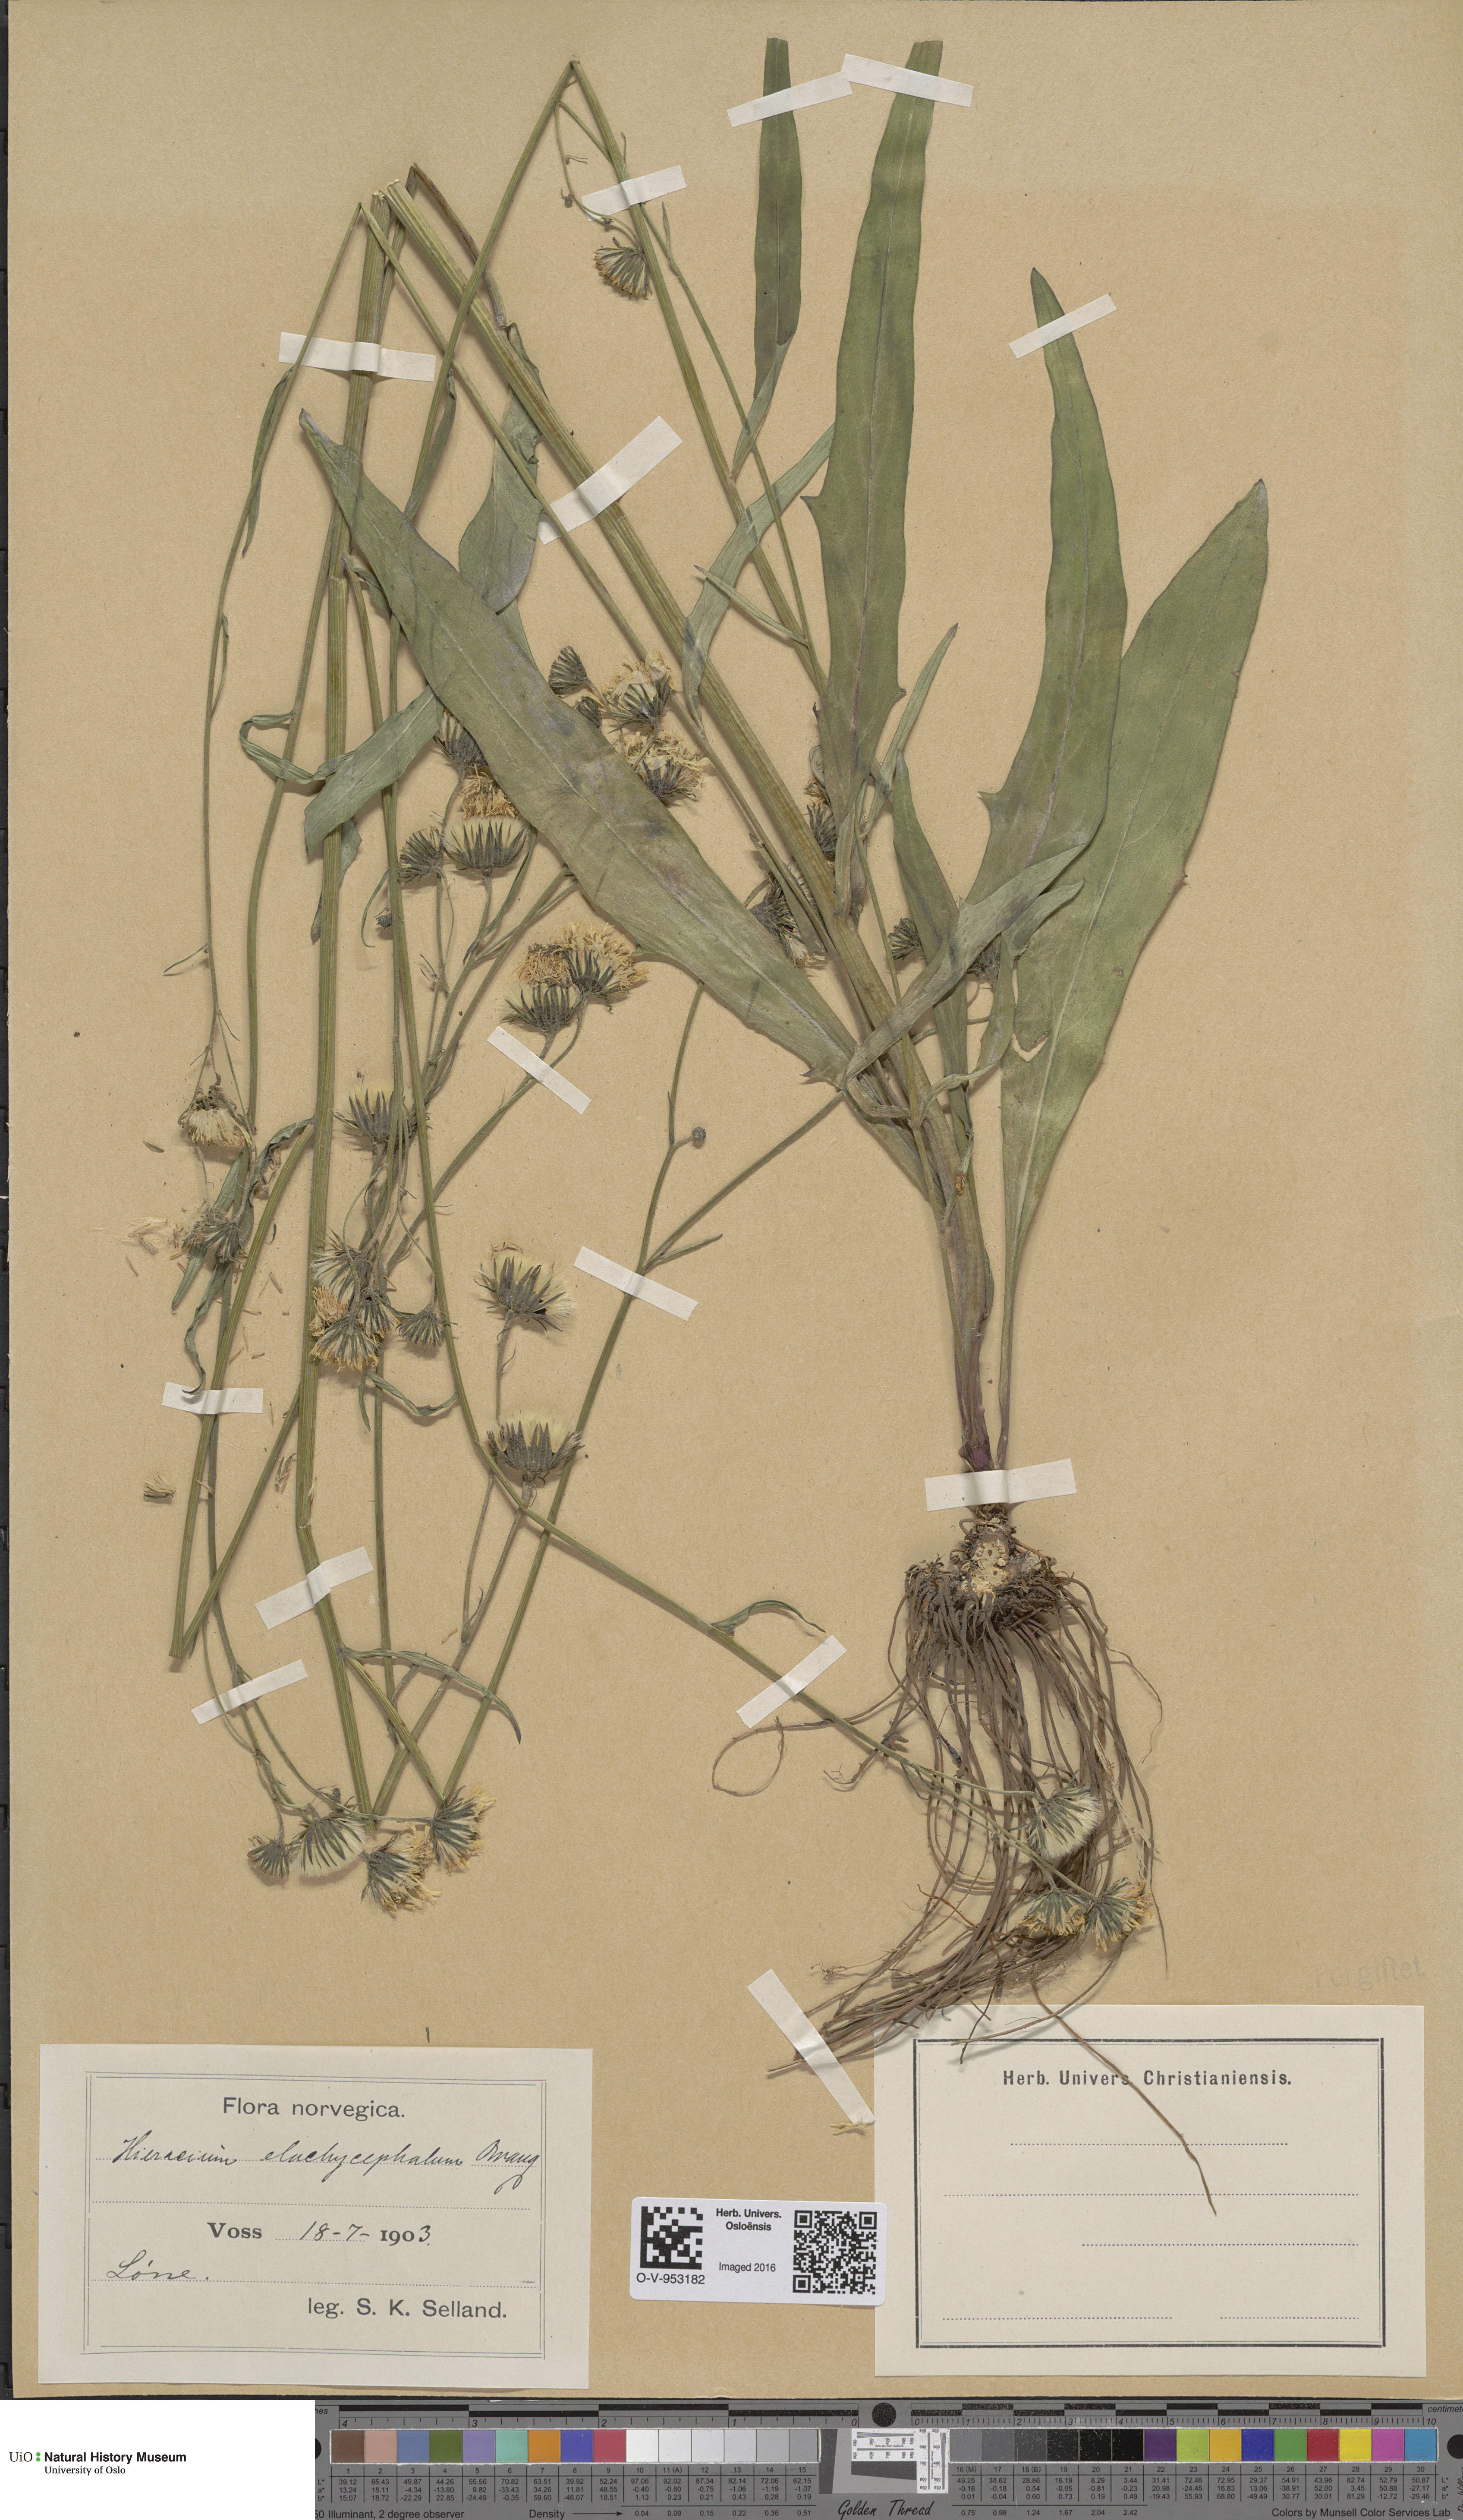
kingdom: Plantae
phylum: Tracheophyta
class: Magnoliopsida
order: Asterales
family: Asteraceae
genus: Hieracium
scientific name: Hieracium
